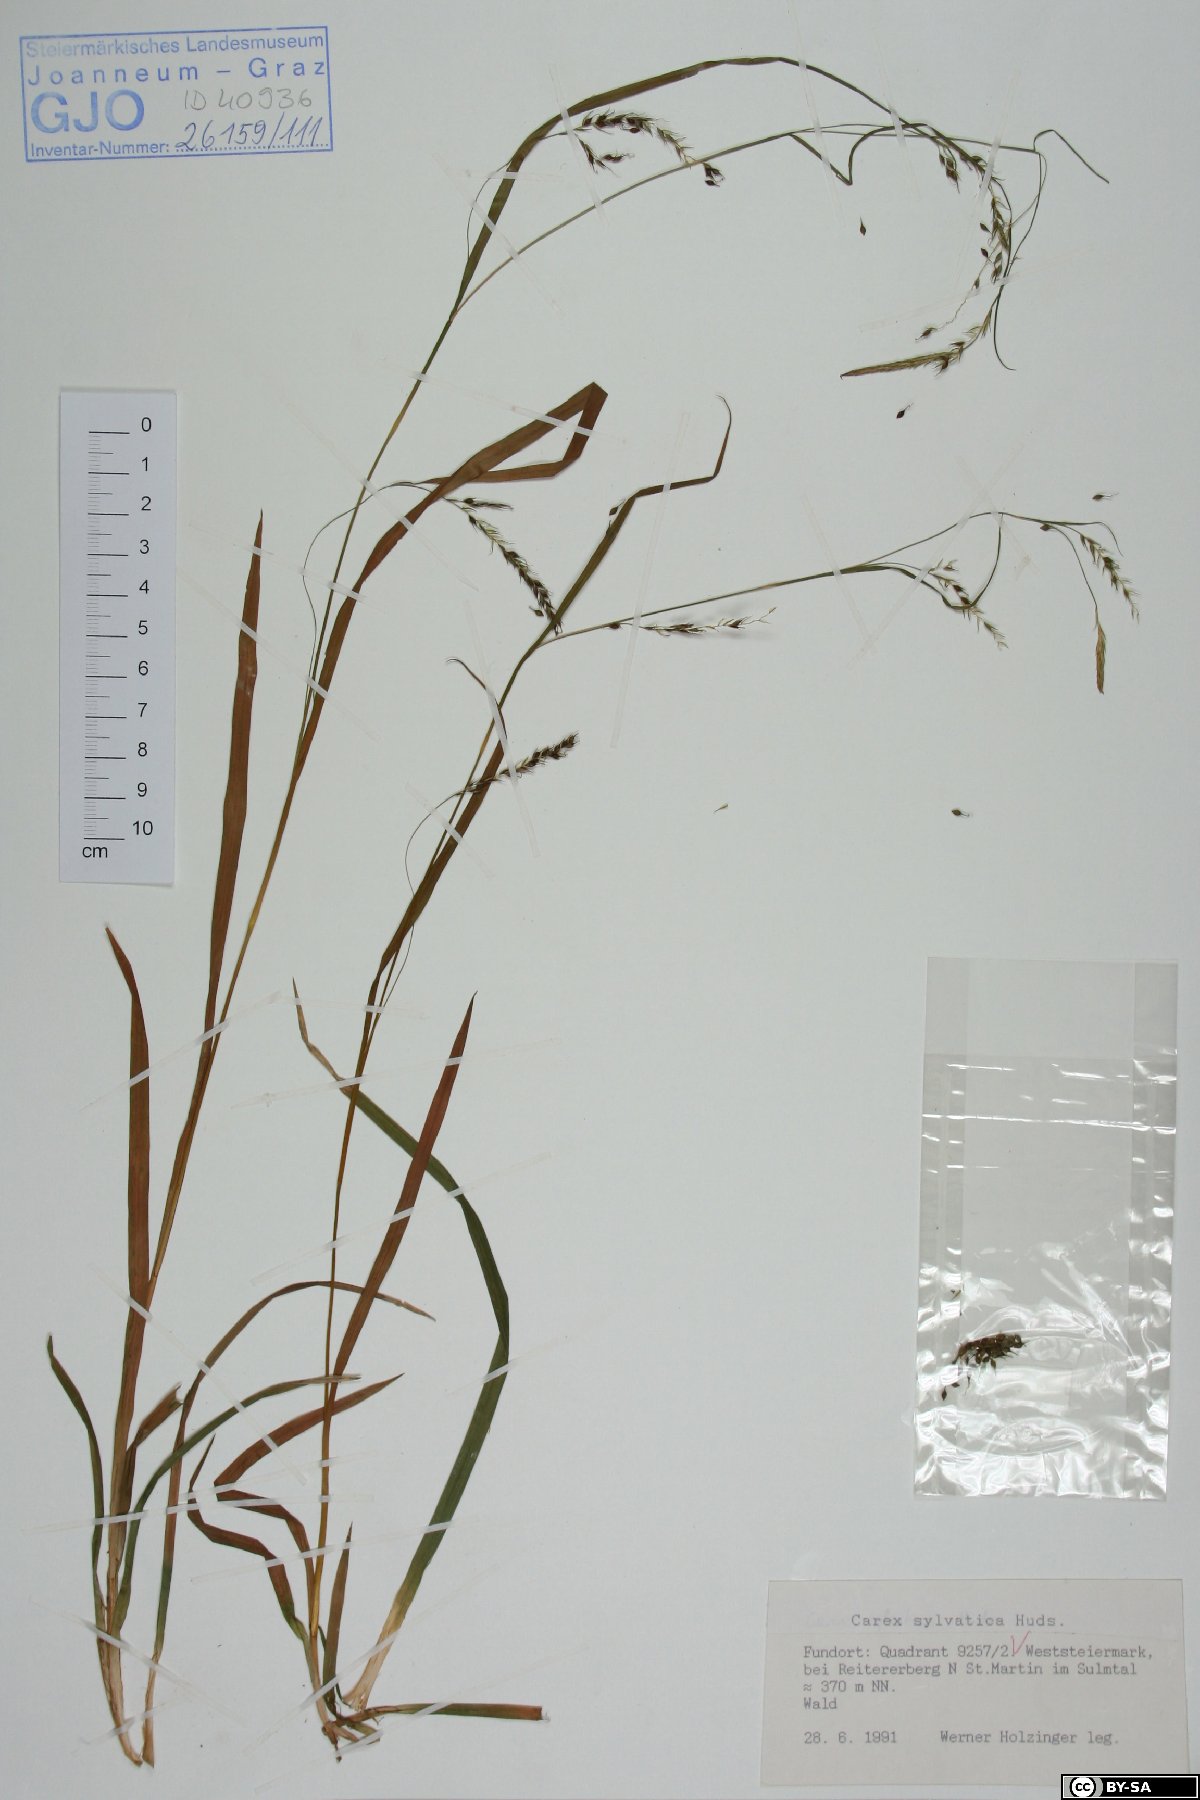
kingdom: Plantae
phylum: Tracheophyta
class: Liliopsida
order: Poales
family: Cyperaceae
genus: Carex
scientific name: Carex sylvatica
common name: Wood-sedge
